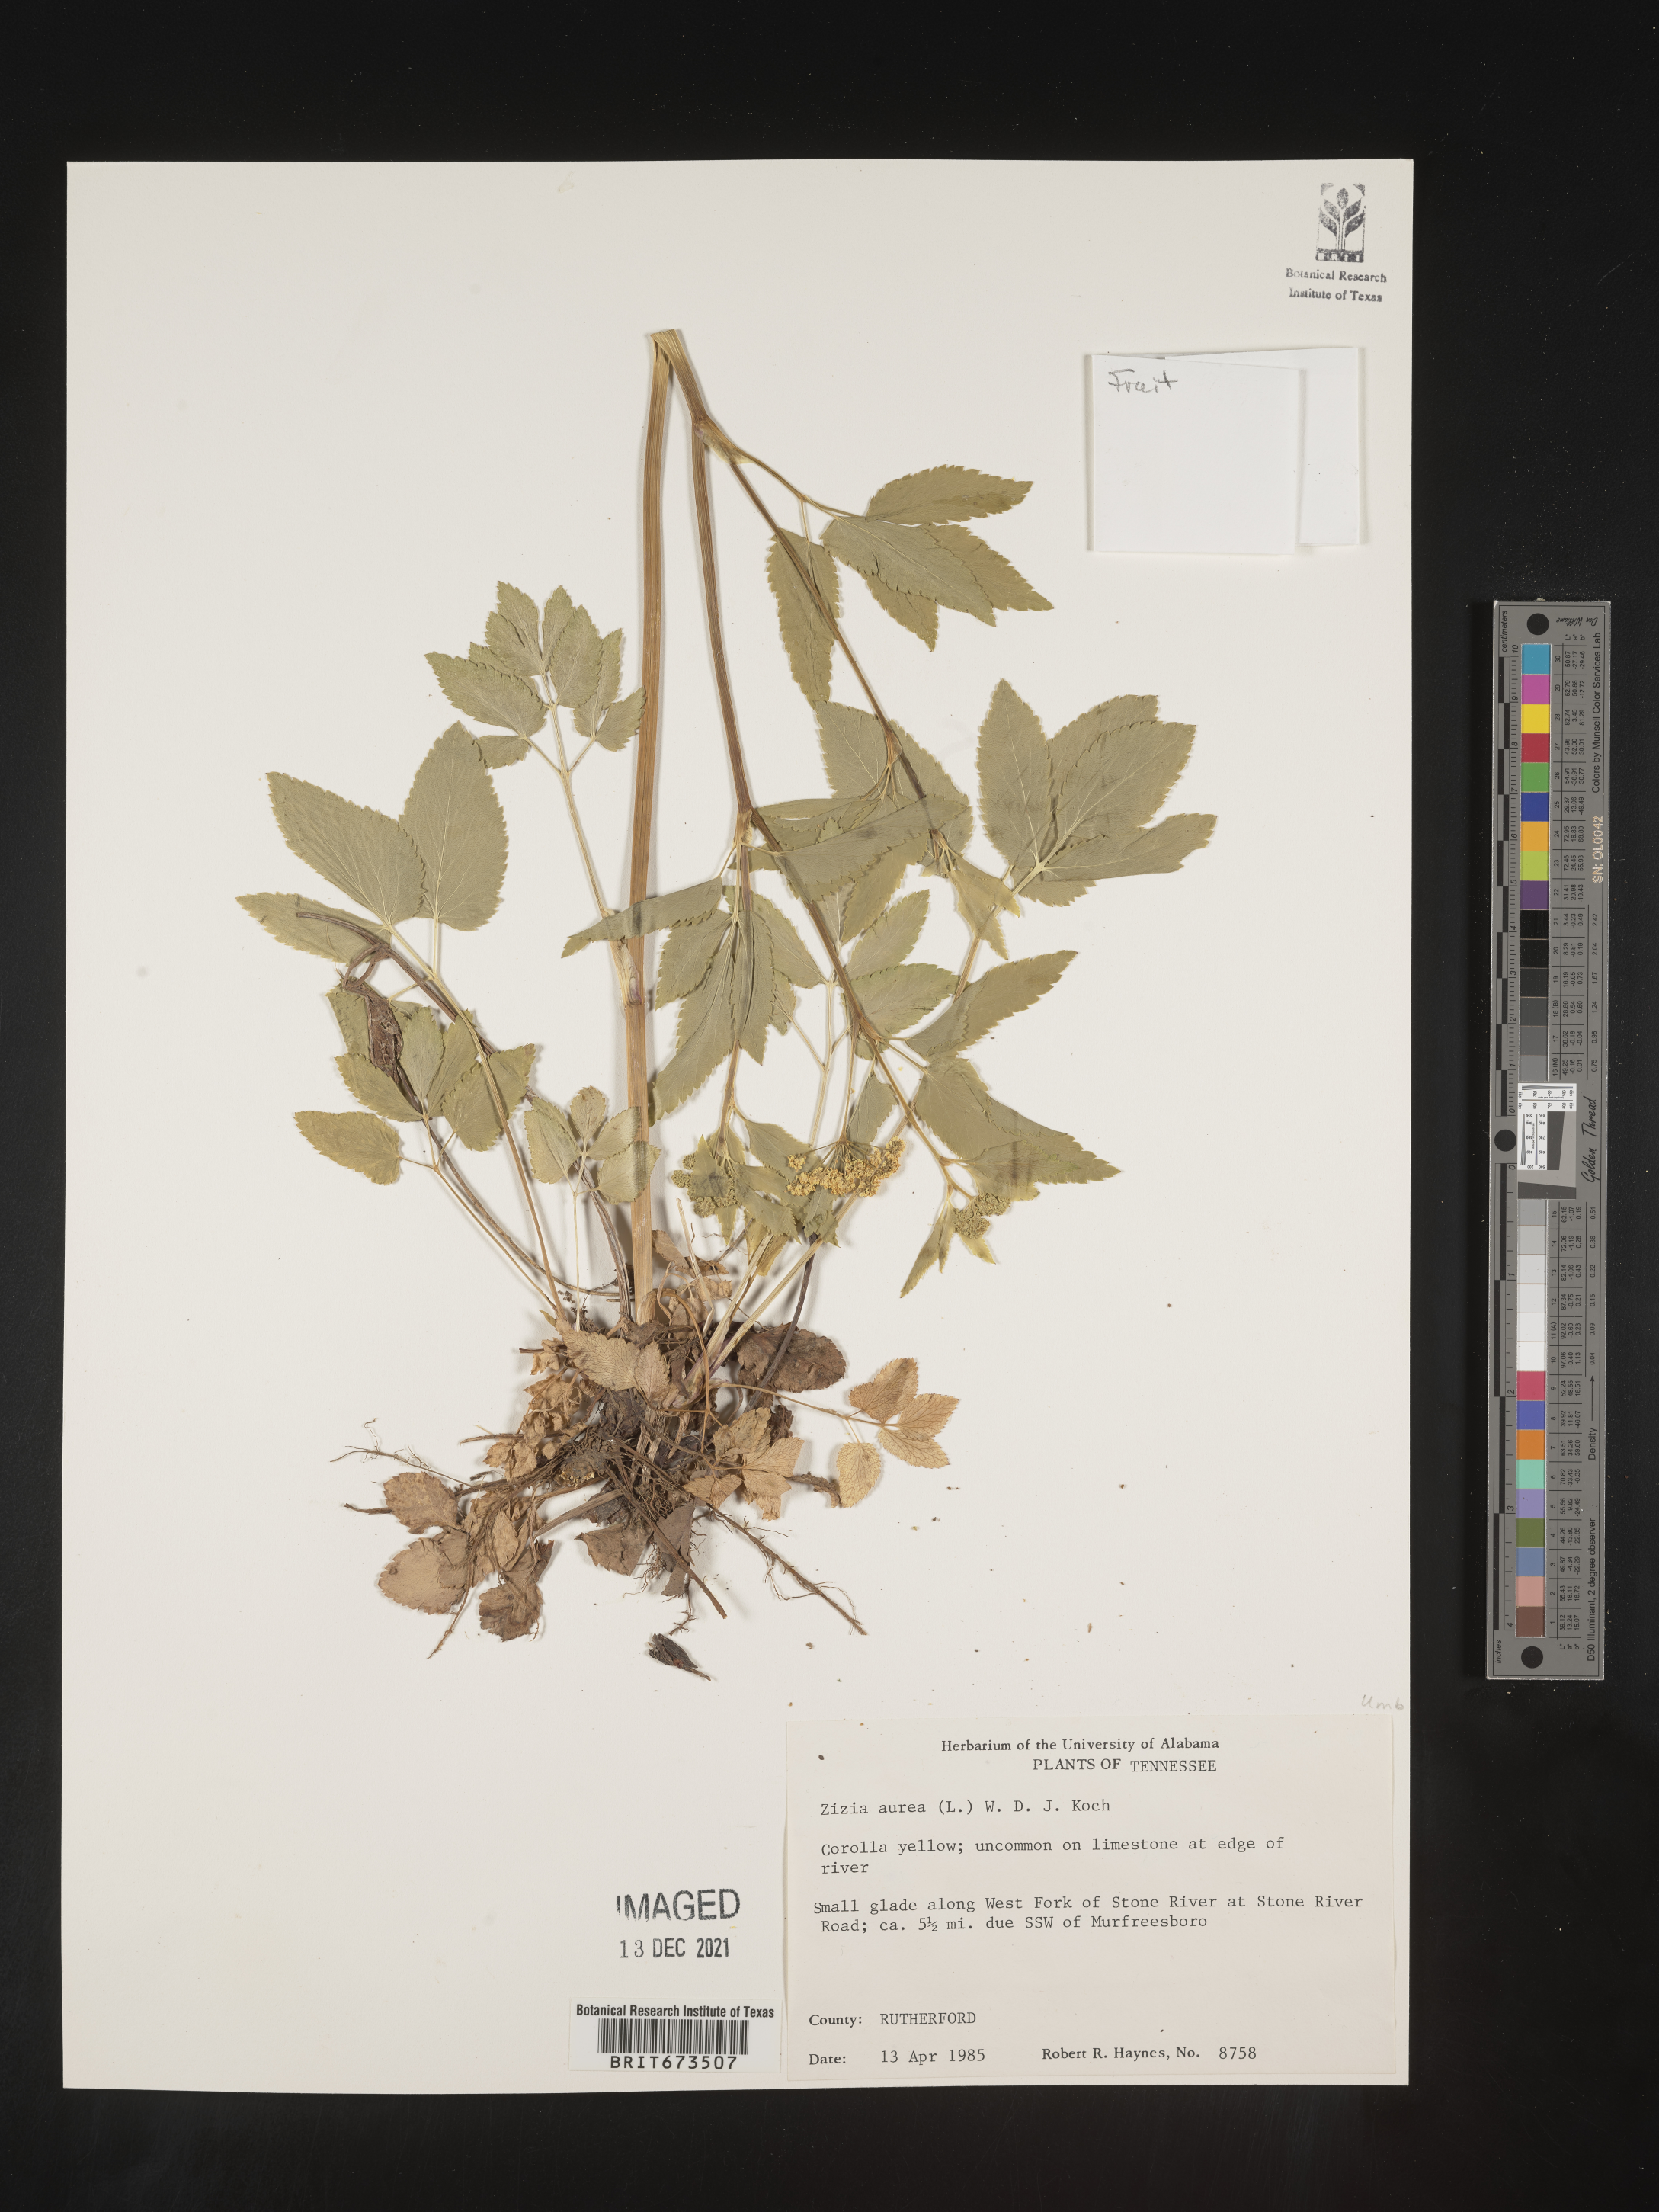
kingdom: Plantae
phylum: Tracheophyta
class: Magnoliopsida
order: Apiales
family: Apiaceae
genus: Zizia
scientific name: Zizia aurea
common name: Golden alexanders
